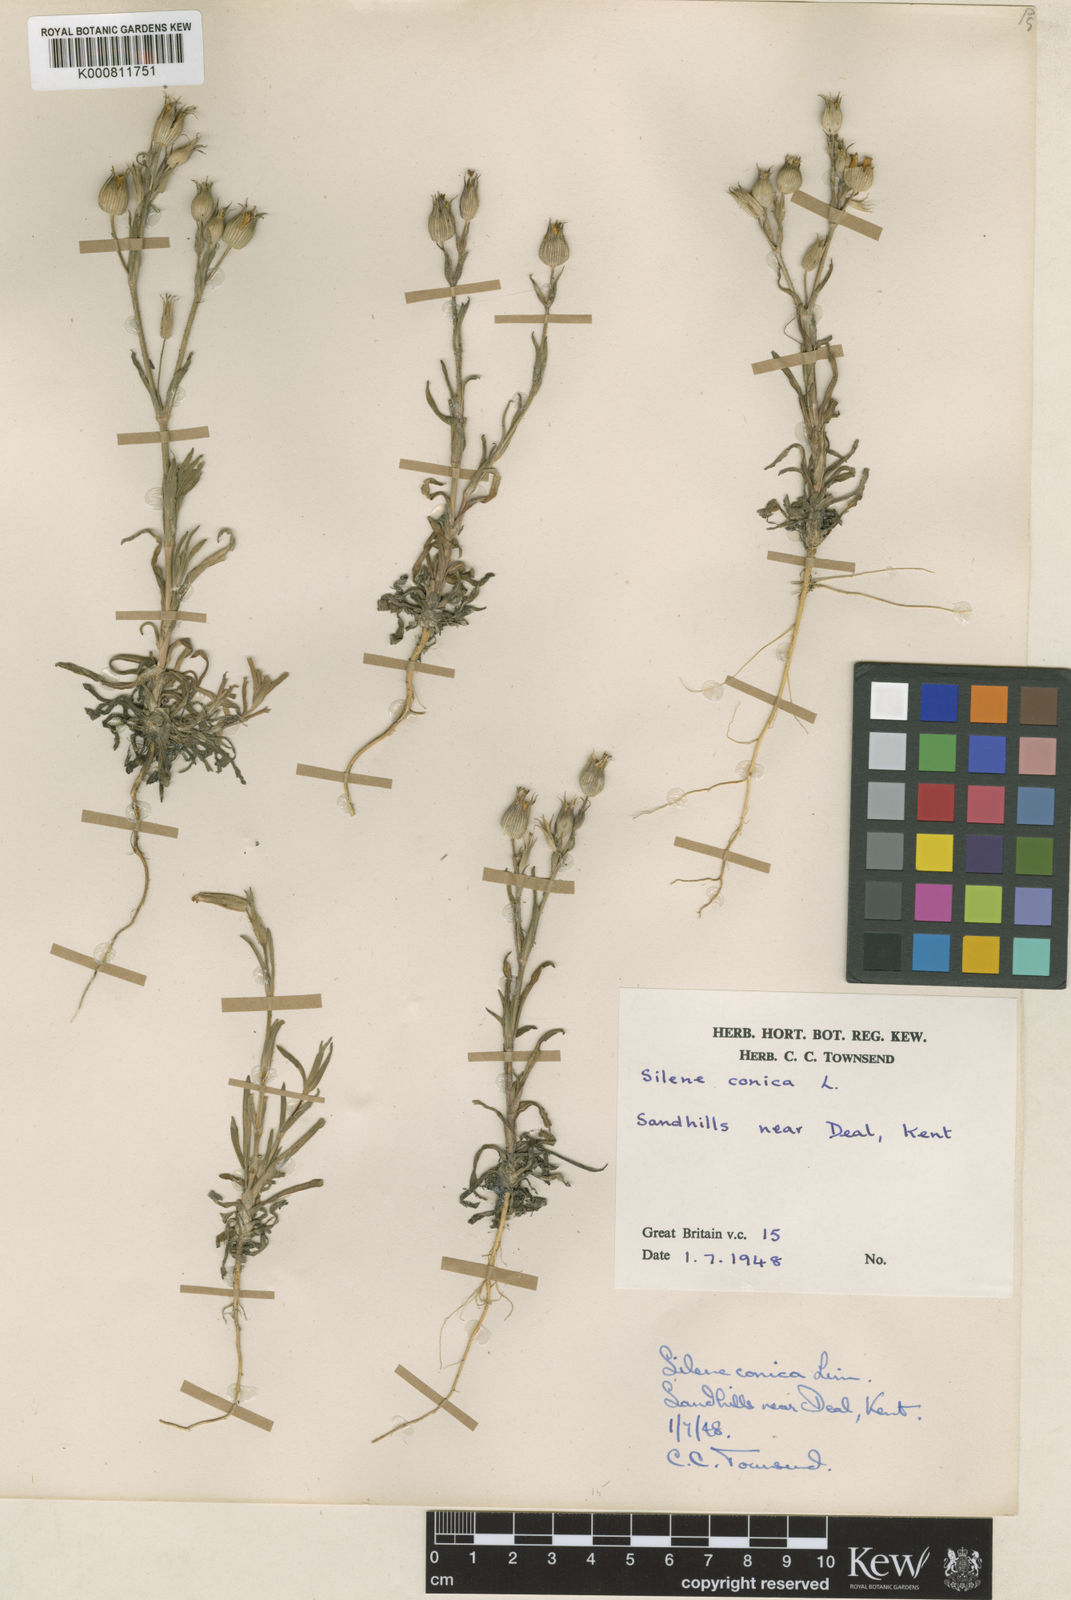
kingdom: Plantae
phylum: Tracheophyta
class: Magnoliopsida
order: Caryophyllales
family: Caryophyllaceae
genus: Silene
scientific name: Silene conica
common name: Sand catchfly
